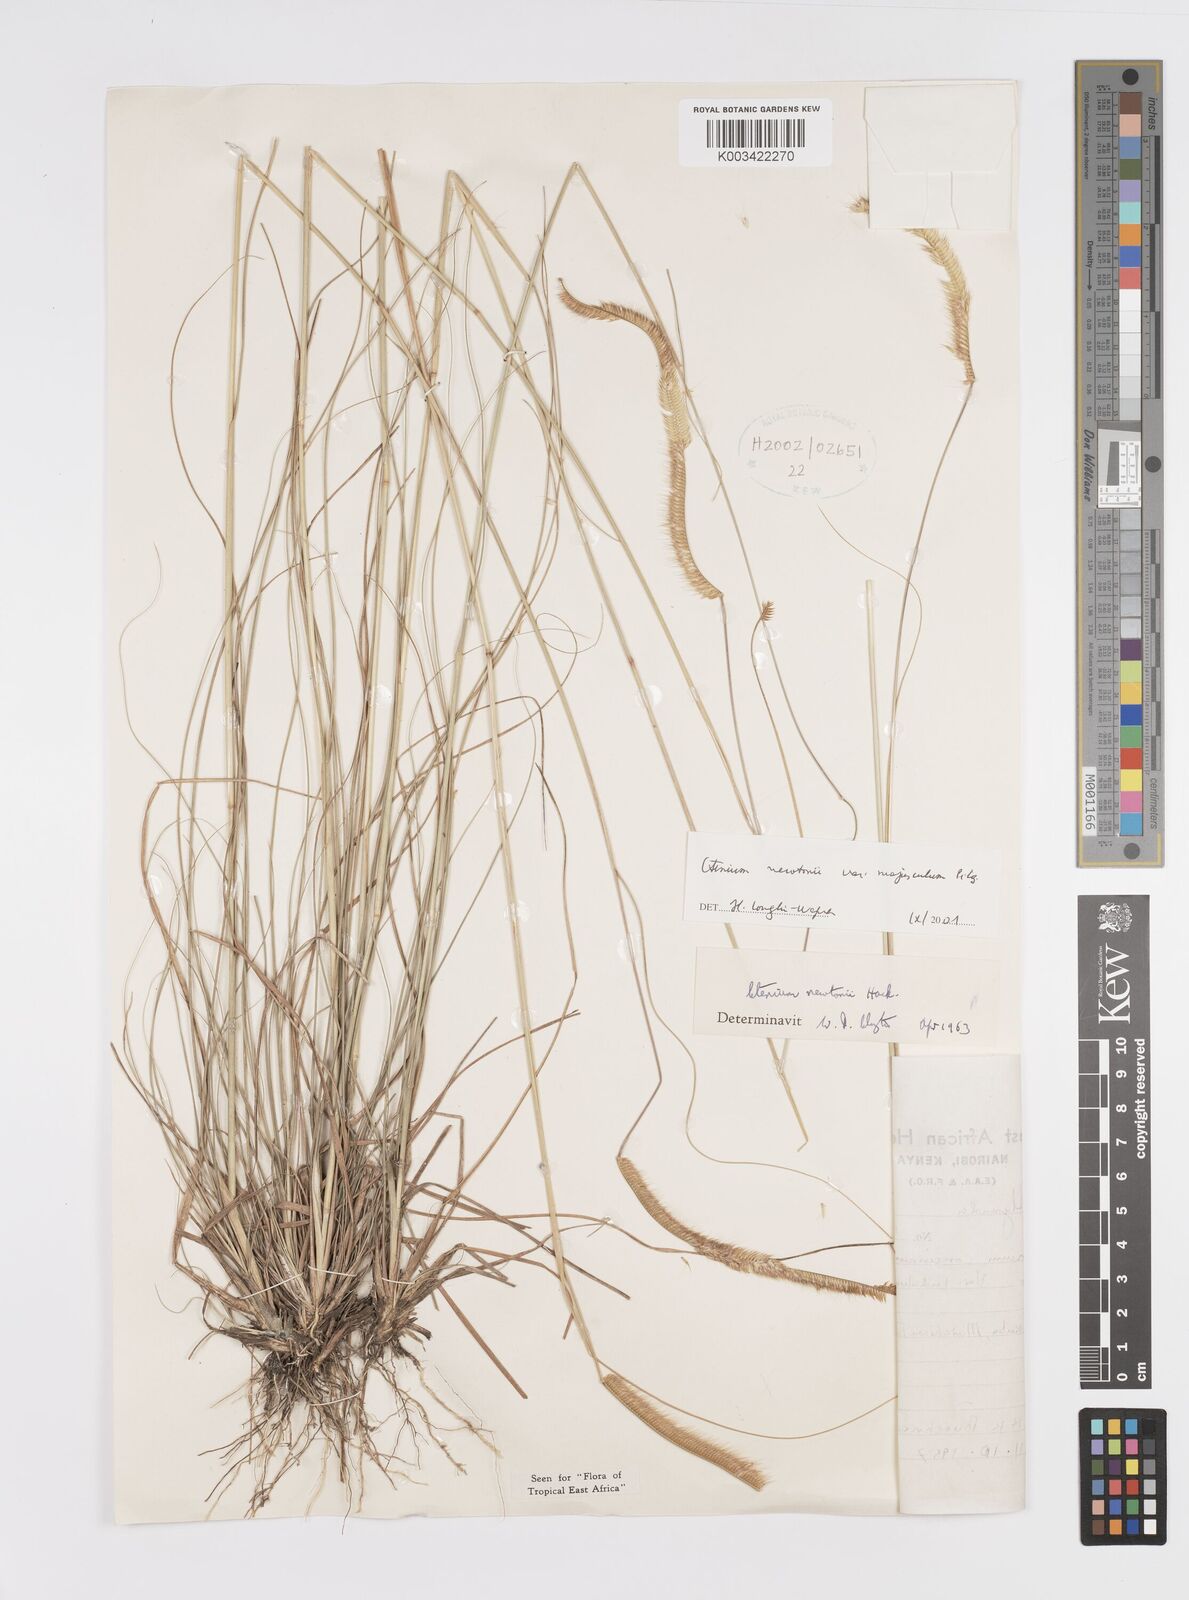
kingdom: Plantae
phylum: Tracheophyta
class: Liliopsida
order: Poales
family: Poaceae
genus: Ctenium
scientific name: Ctenium newtonii
